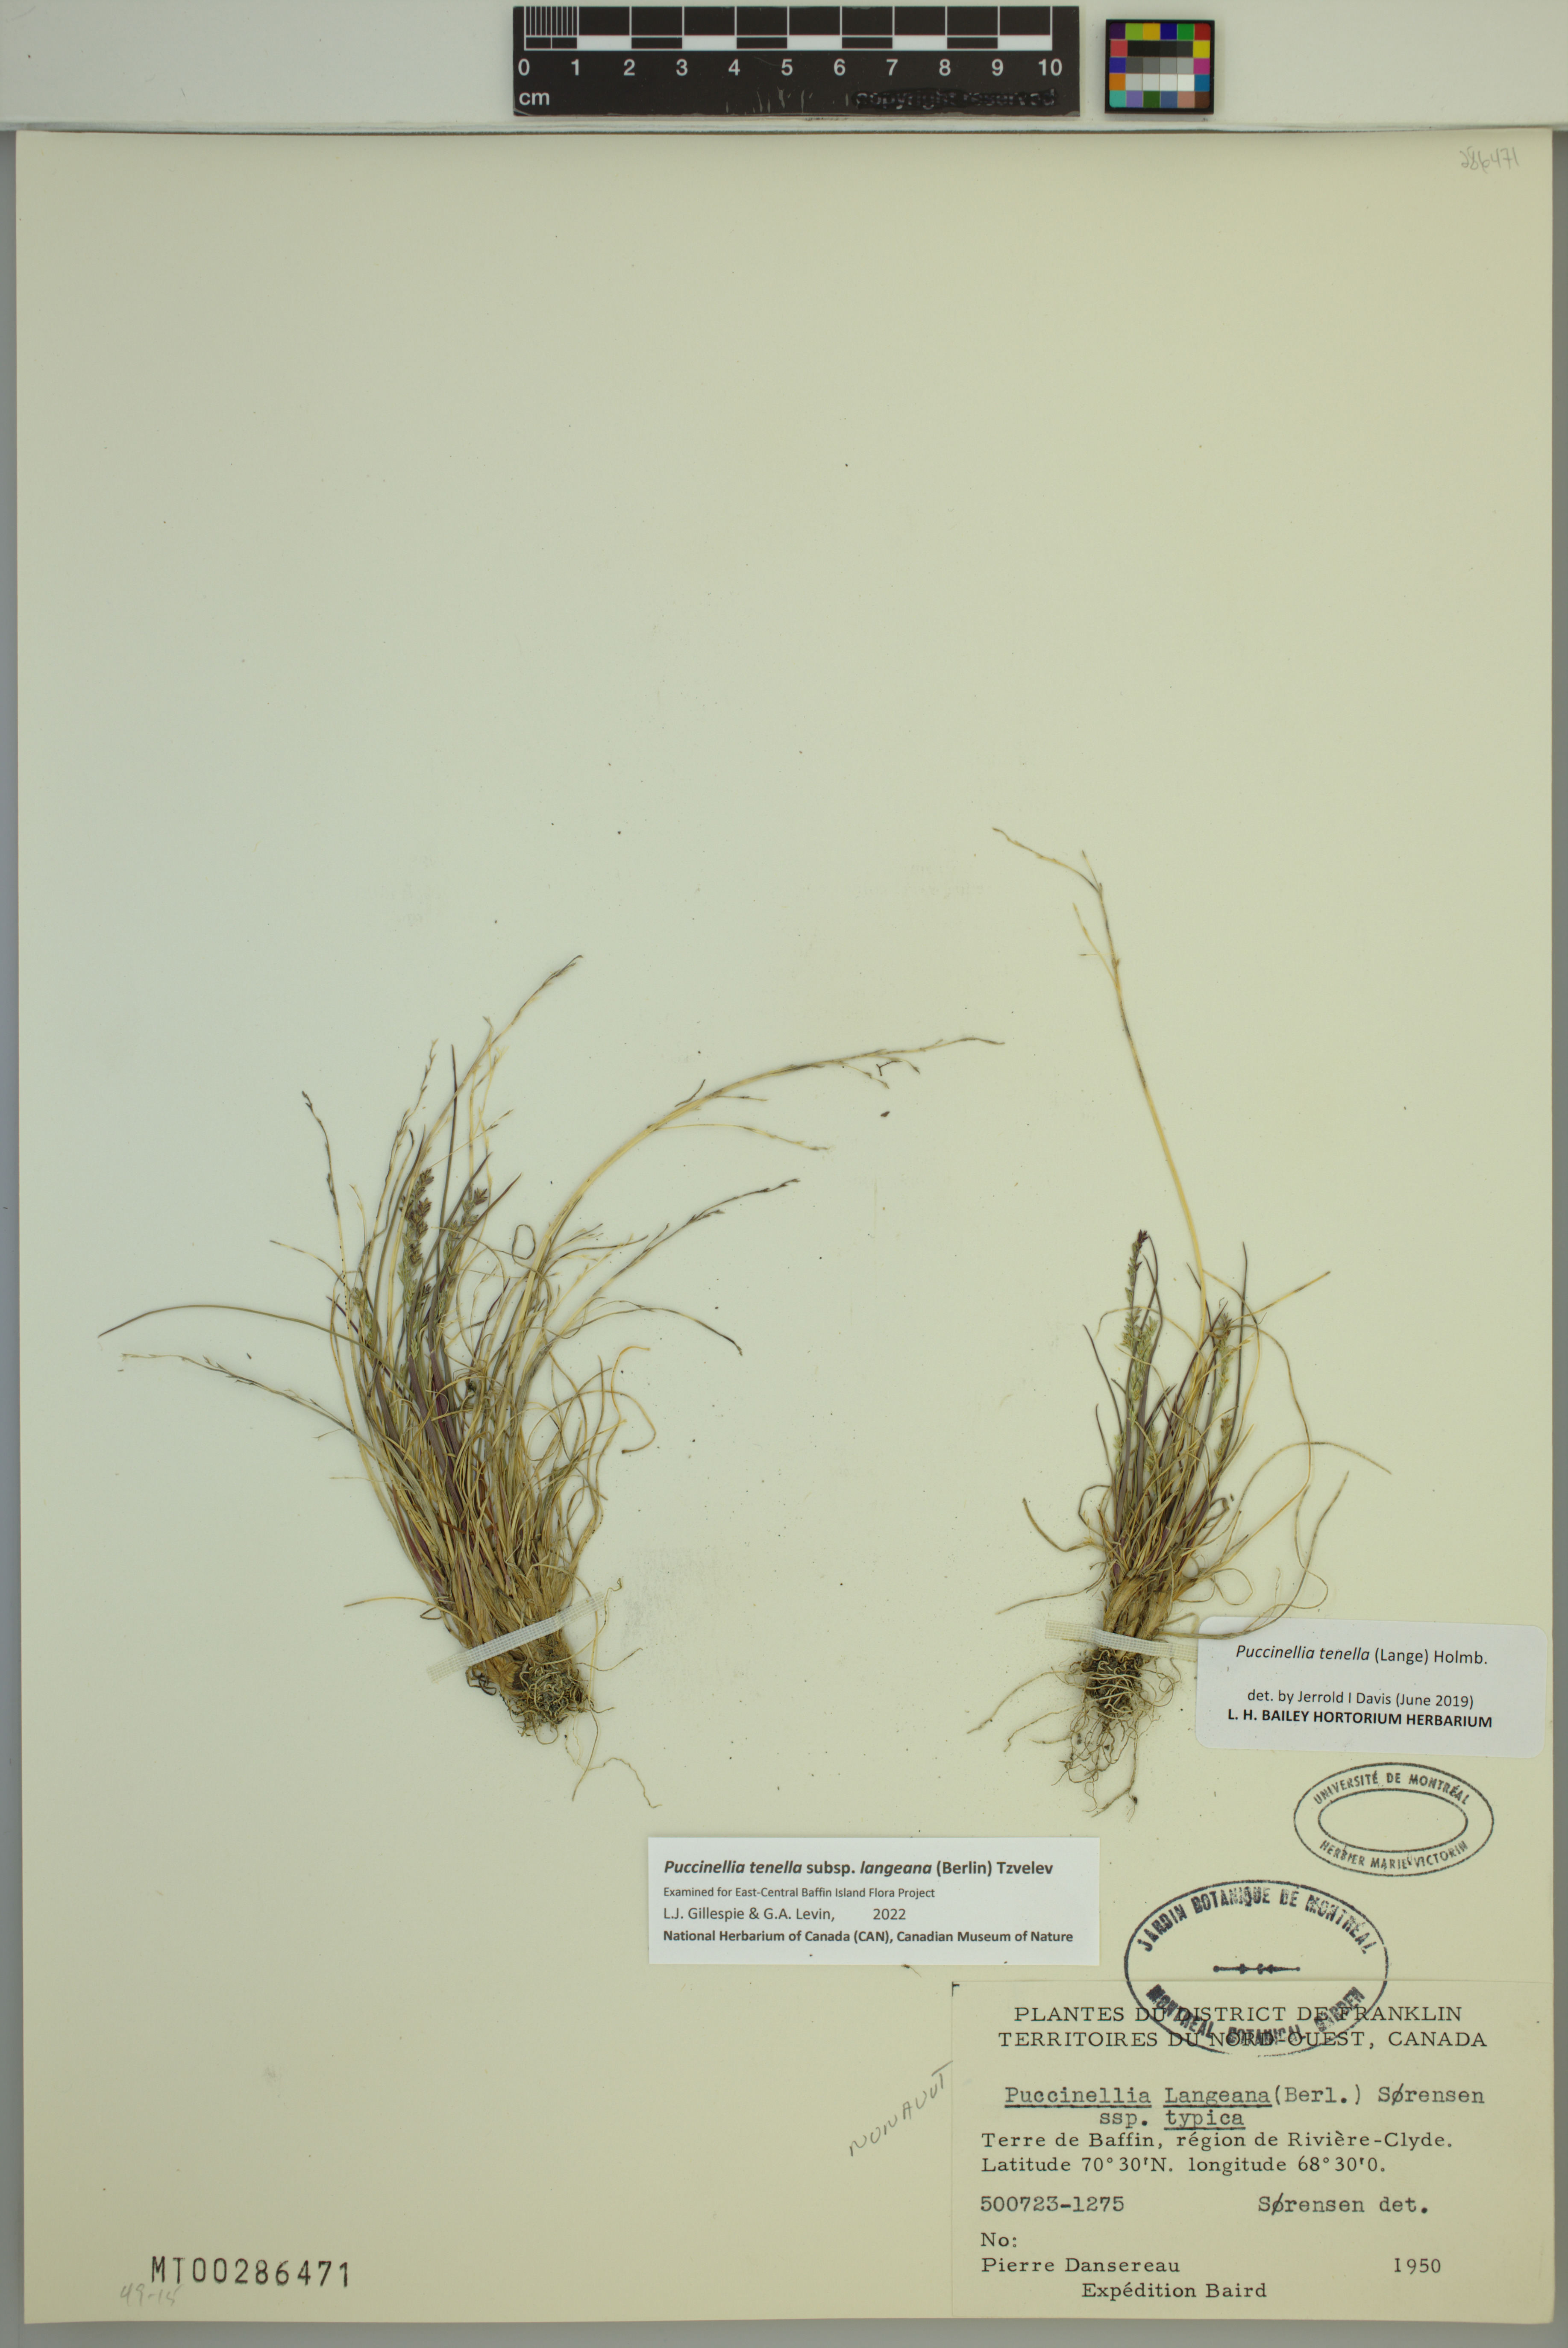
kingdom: Plantae
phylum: Tracheophyta
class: Liliopsida
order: Poales
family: Poaceae
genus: Puccinellia
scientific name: Puccinellia tenella
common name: Tundra alkaligrass
